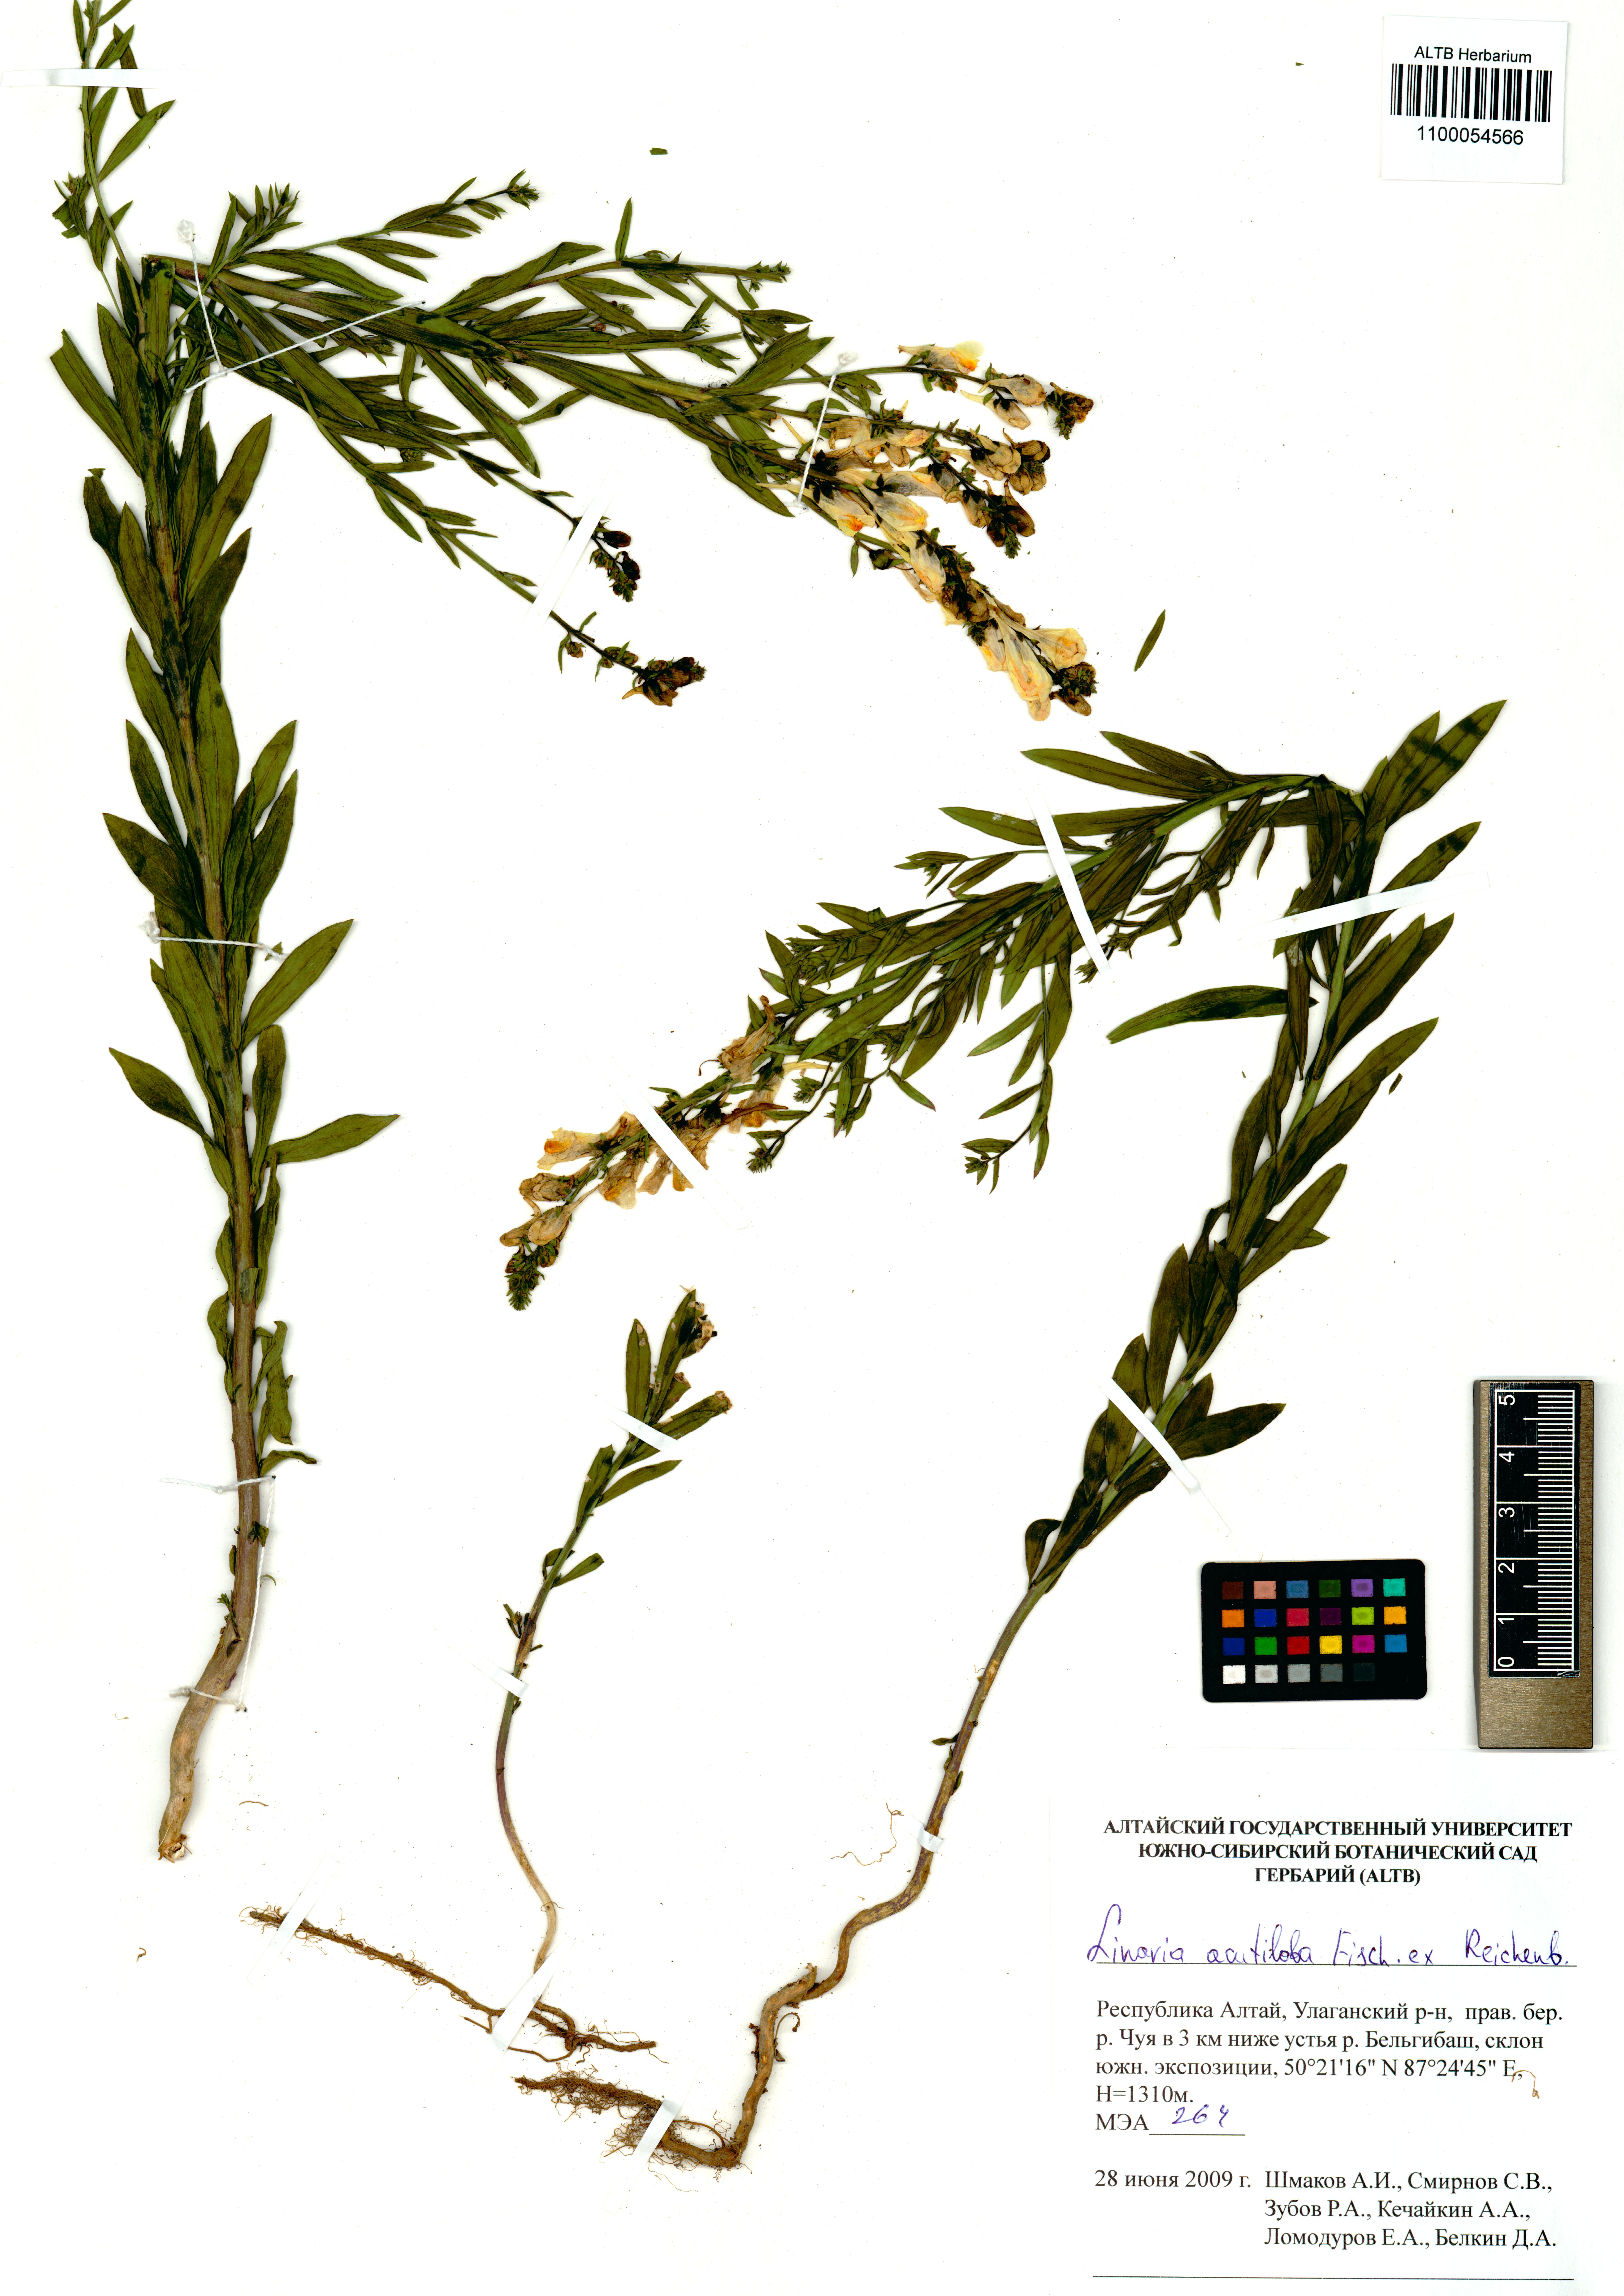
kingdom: Plantae
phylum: Tracheophyta
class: Magnoliopsida
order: Lamiales
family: Plantaginaceae
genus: Linaria
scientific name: Linaria acutiloba
